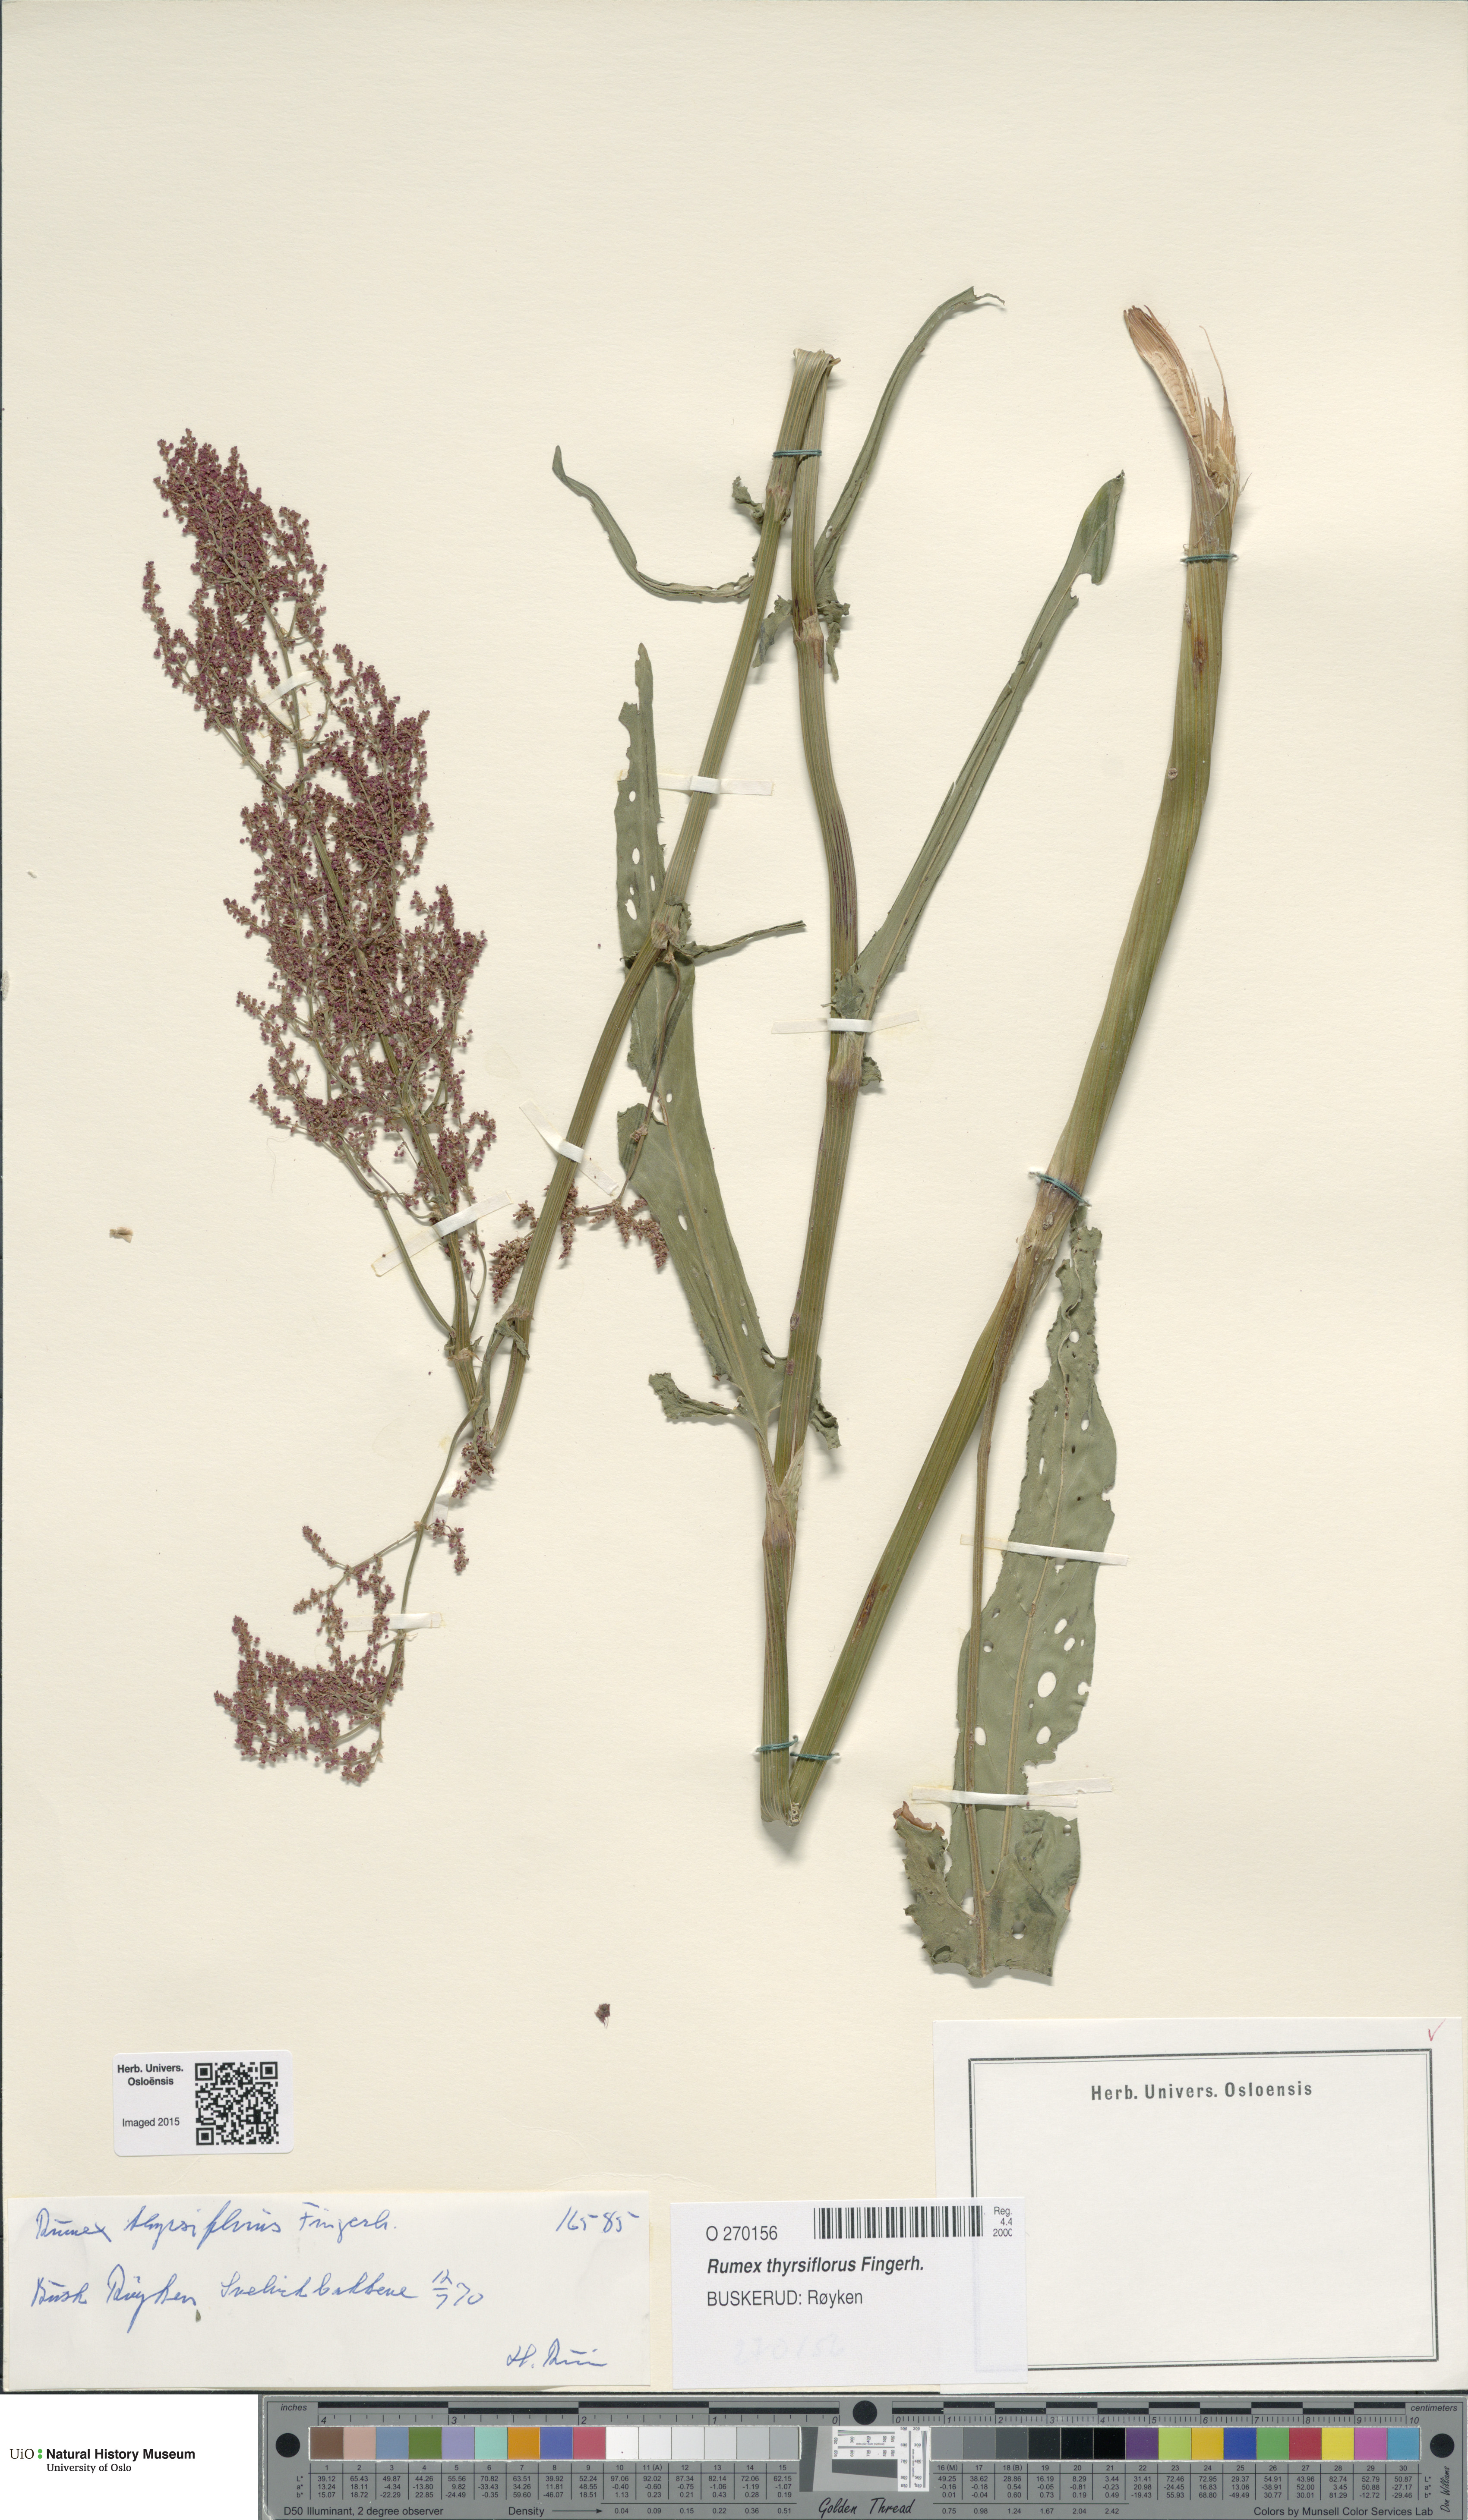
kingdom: Plantae
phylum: Tracheophyta
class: Magnoliopsida
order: Caryophyllales
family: Polygonaceae
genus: Rumex
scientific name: Rumex thyrsiflorus
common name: Garden sorrel
